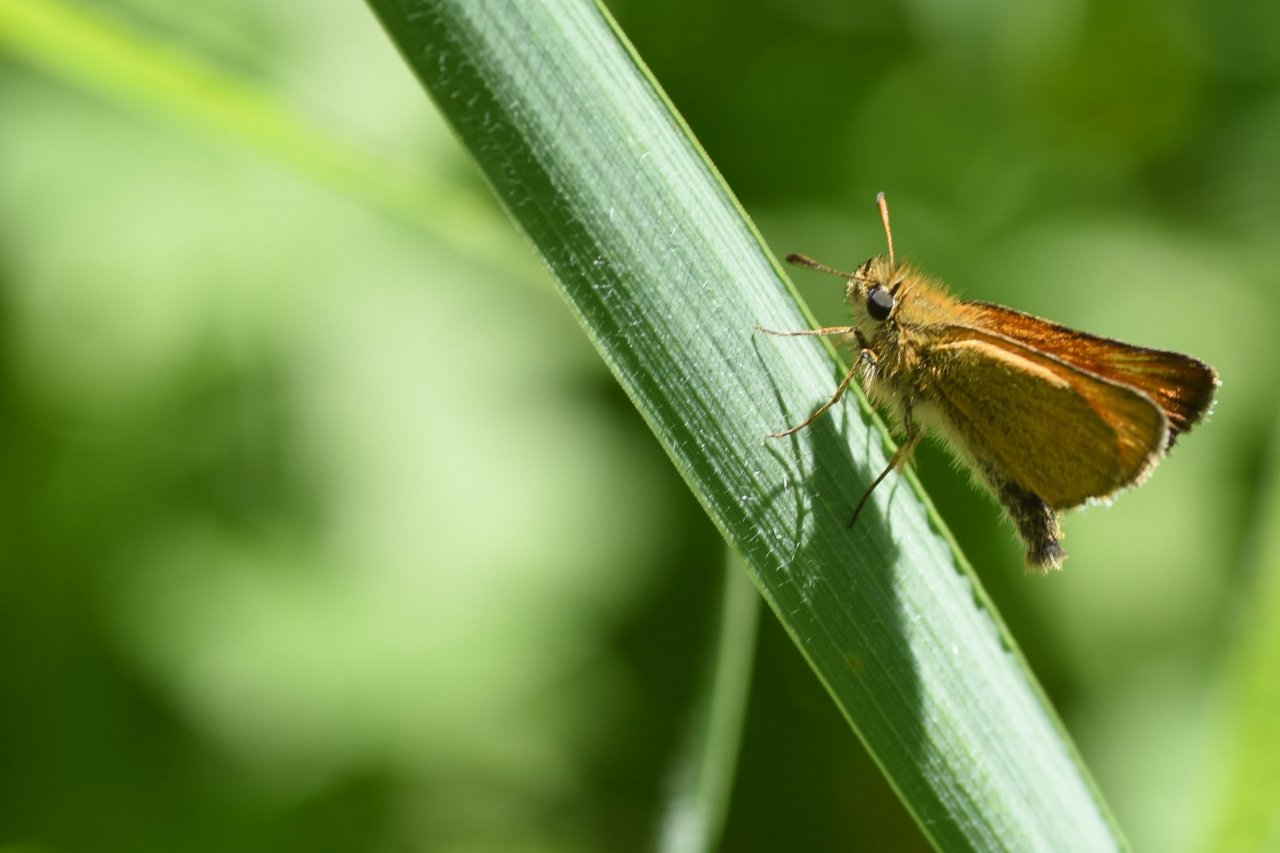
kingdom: Animalia
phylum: Arthropoda
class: Insecta
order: Lepidoptera
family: Hesperiidae
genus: Thymelicus
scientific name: Thymelicus lineola
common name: European Skipper
